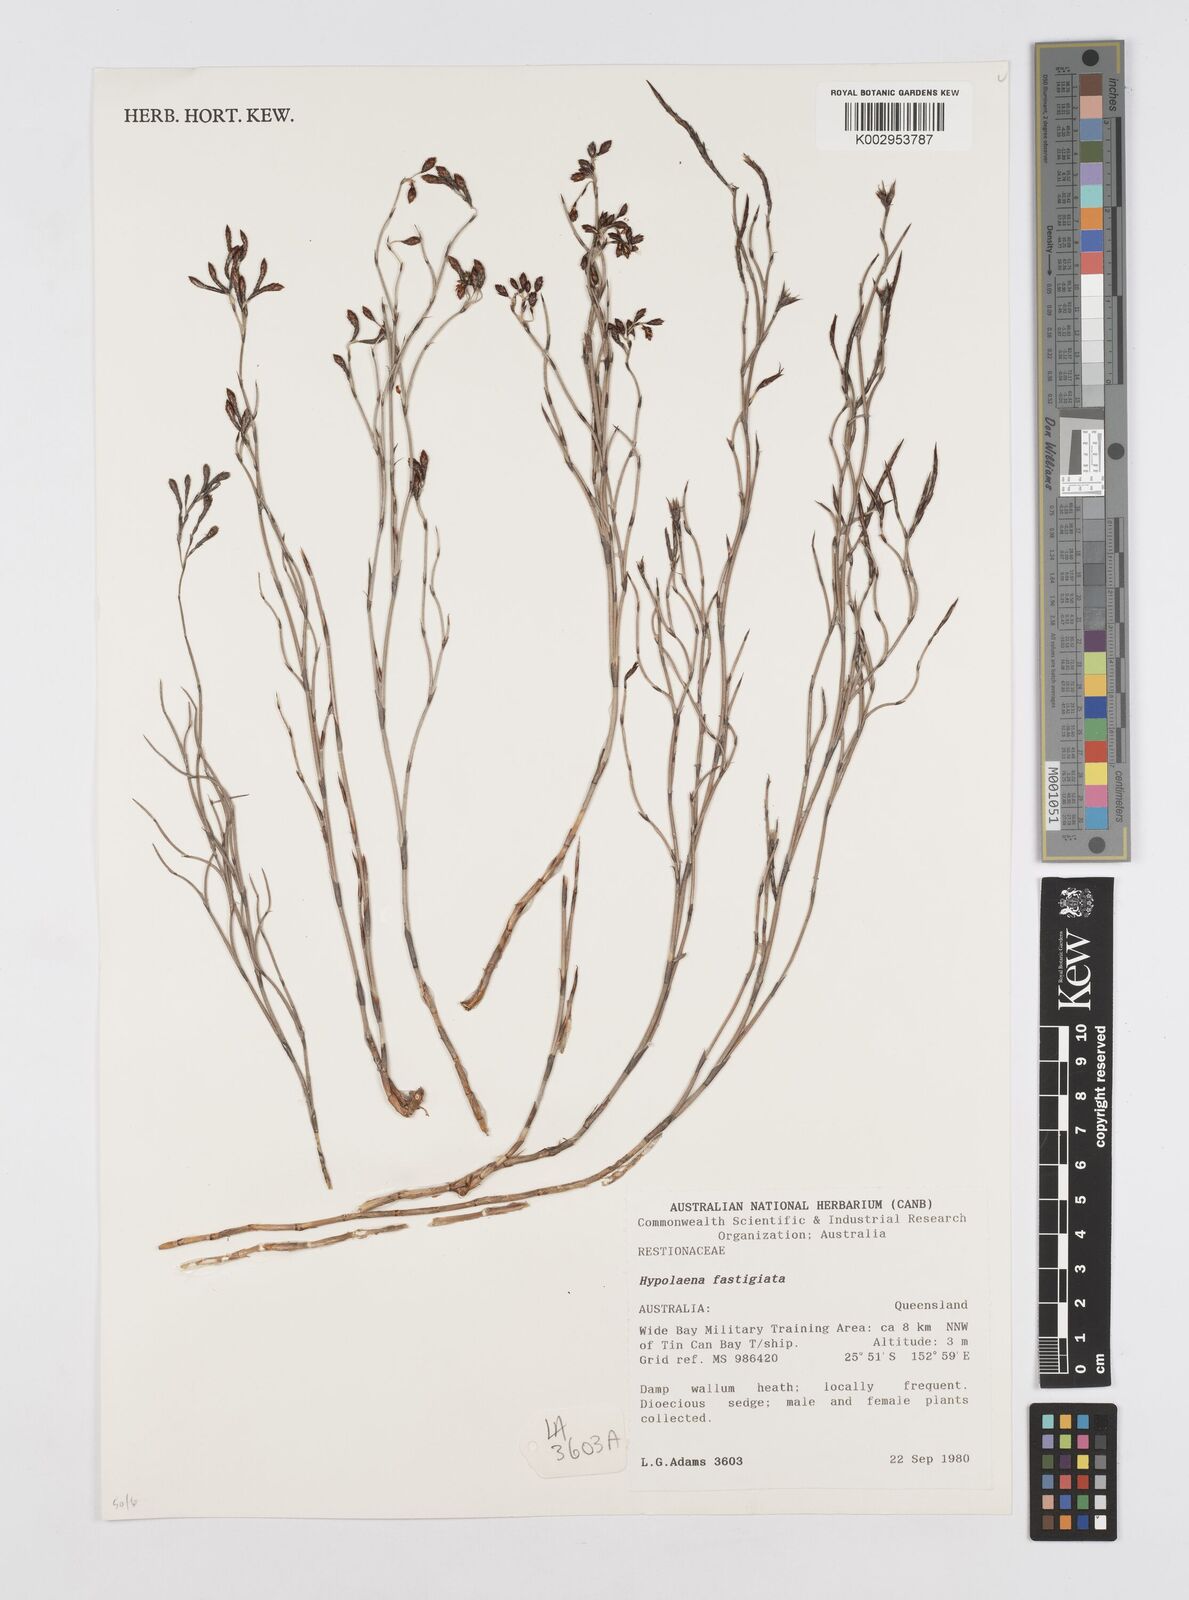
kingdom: Plantae
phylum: Tracheophyta
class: Liliopsida
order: Poales
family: Restionaceae
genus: Hypolaena
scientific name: Hypolaena fastigiata
